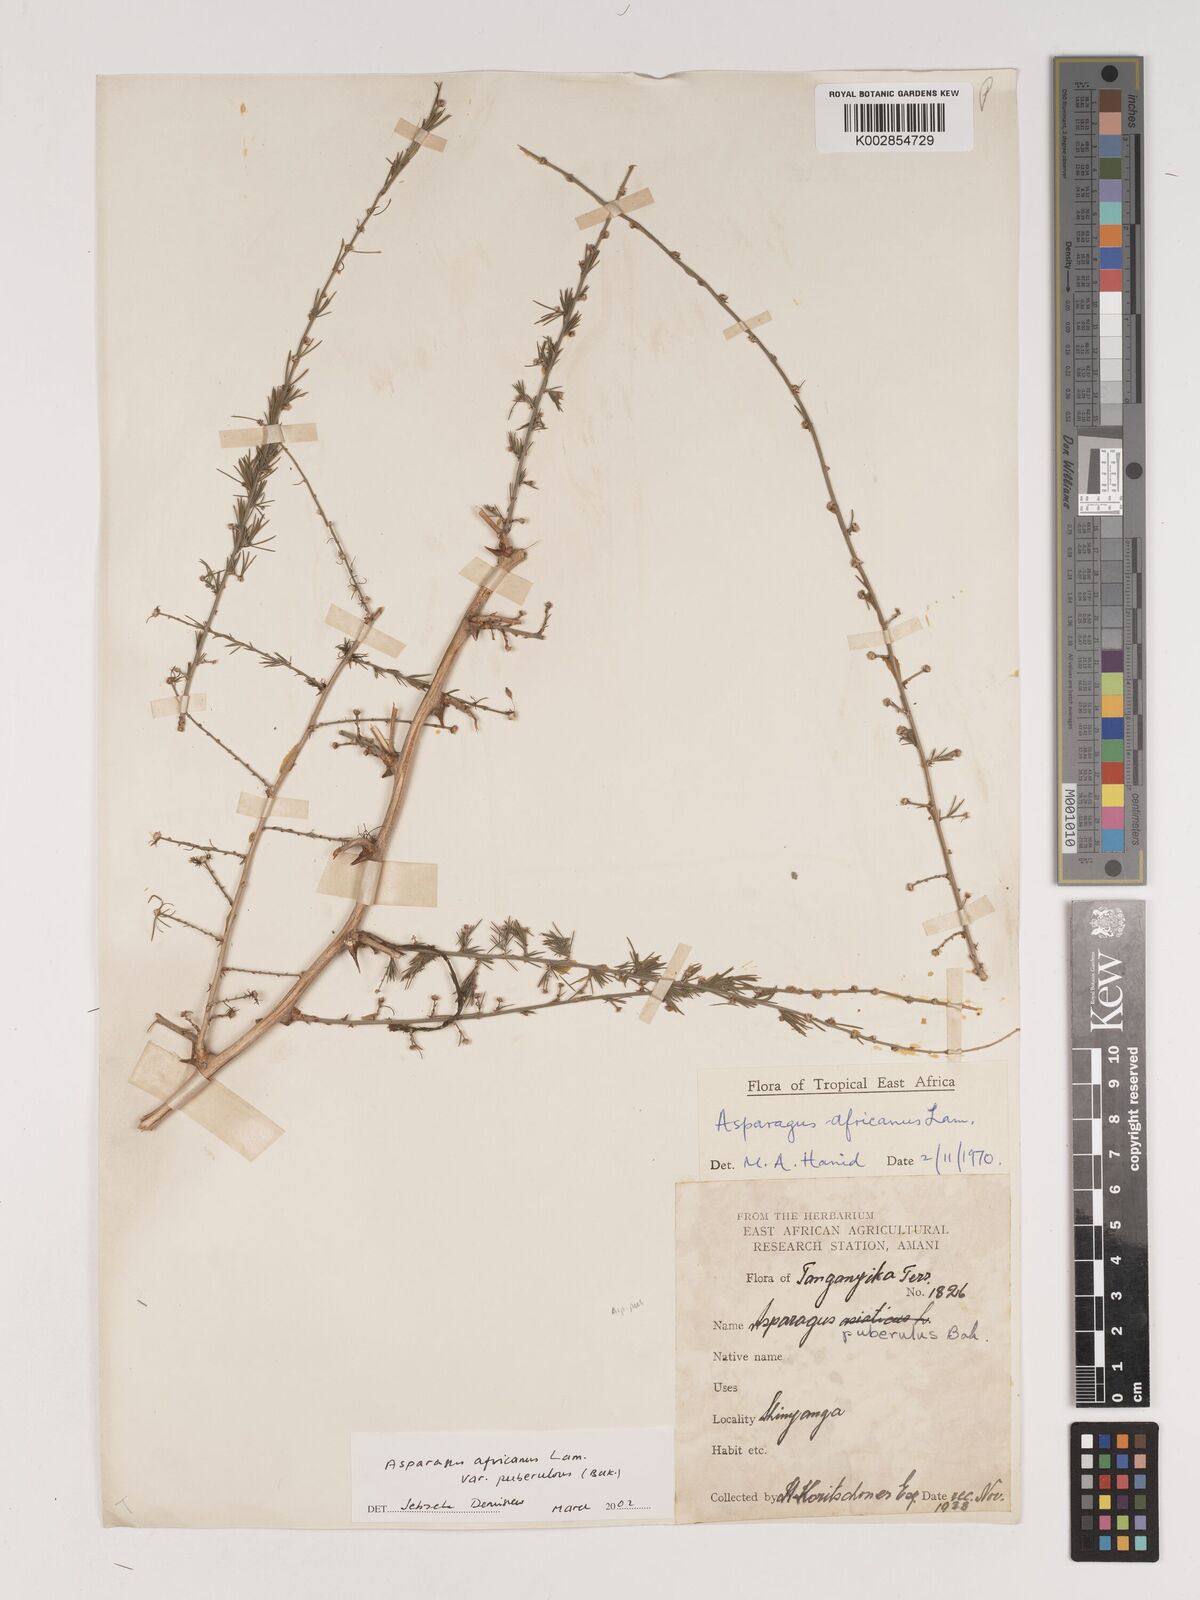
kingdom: Plantae
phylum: Tracheophyta
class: Liliopsida
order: Asparagales
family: Asparagaceae
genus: Asparagus
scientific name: Asparagus africanus
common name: Asparagus-fern
